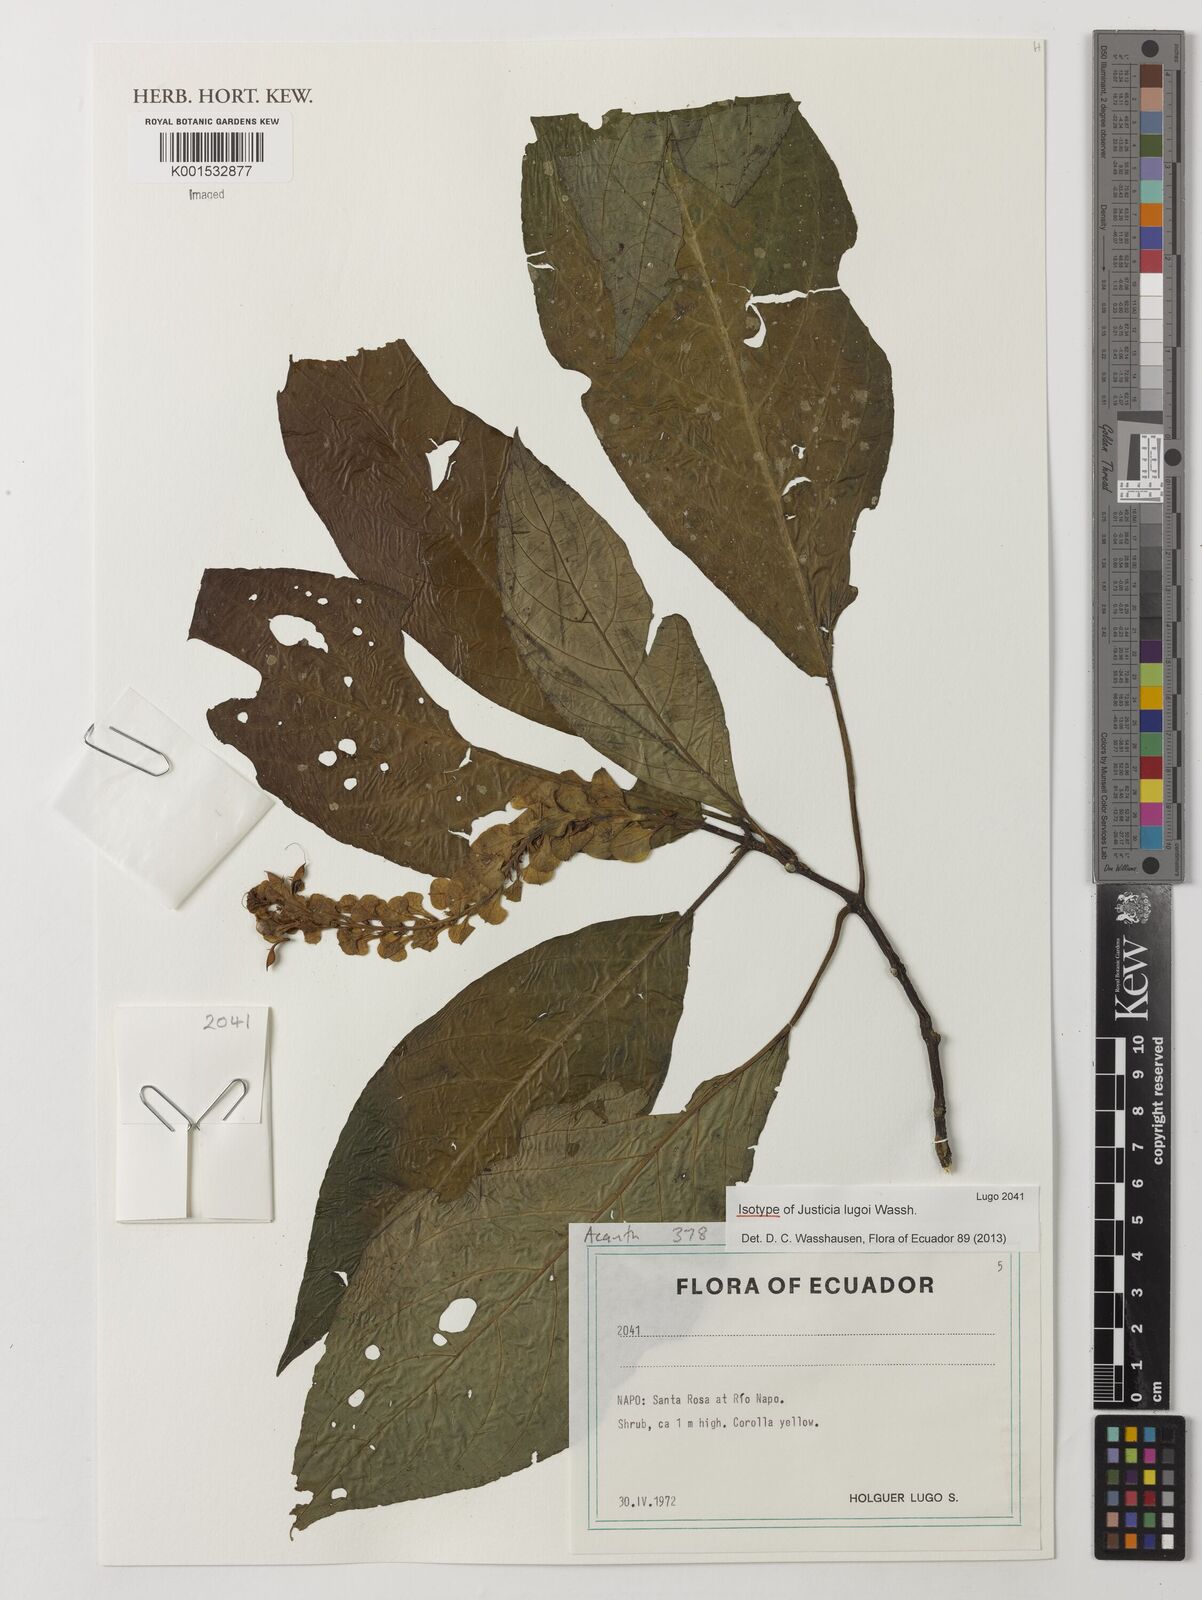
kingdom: Plantae
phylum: Tracheophyta
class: Magnoliopsida
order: Lamiales
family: Acanthaceae
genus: Justicia
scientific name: Justicia lugoi
